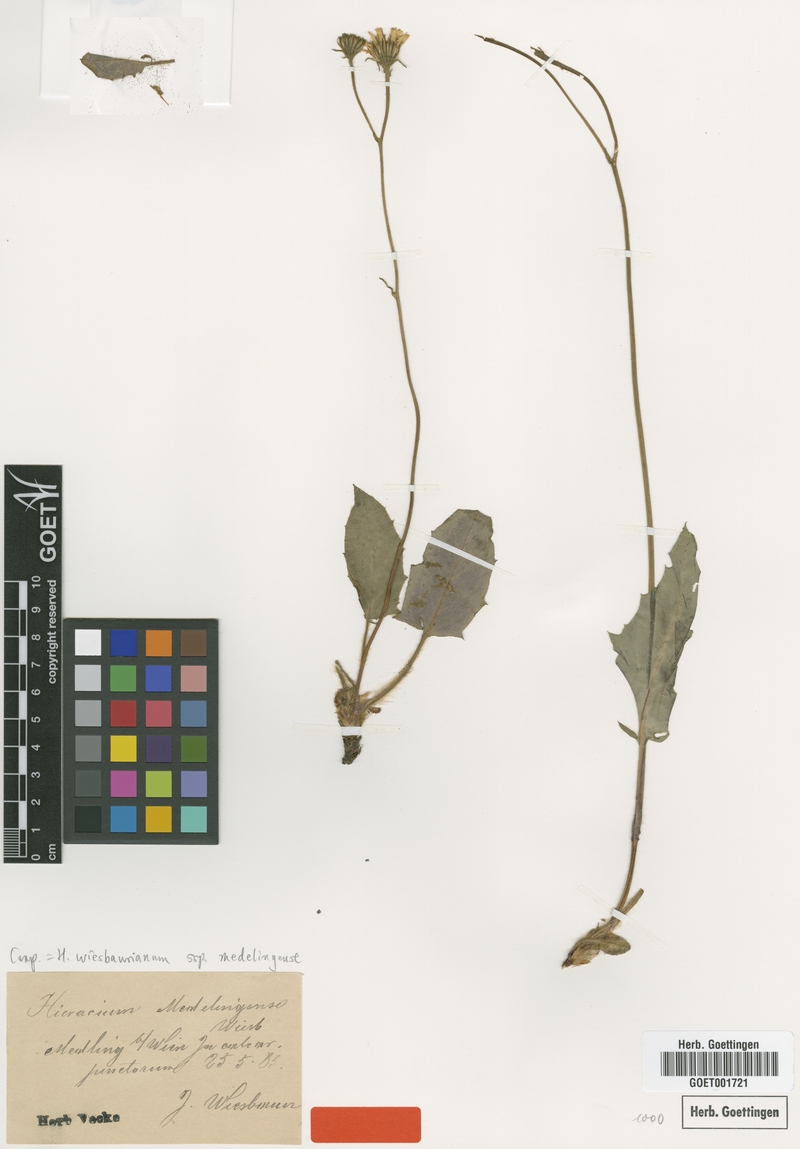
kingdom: Plantae
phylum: Tracheophyta
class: Magnoliopsida
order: Asterales
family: Asteraceae
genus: Hieracium
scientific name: Hieracium hypochoeroides
